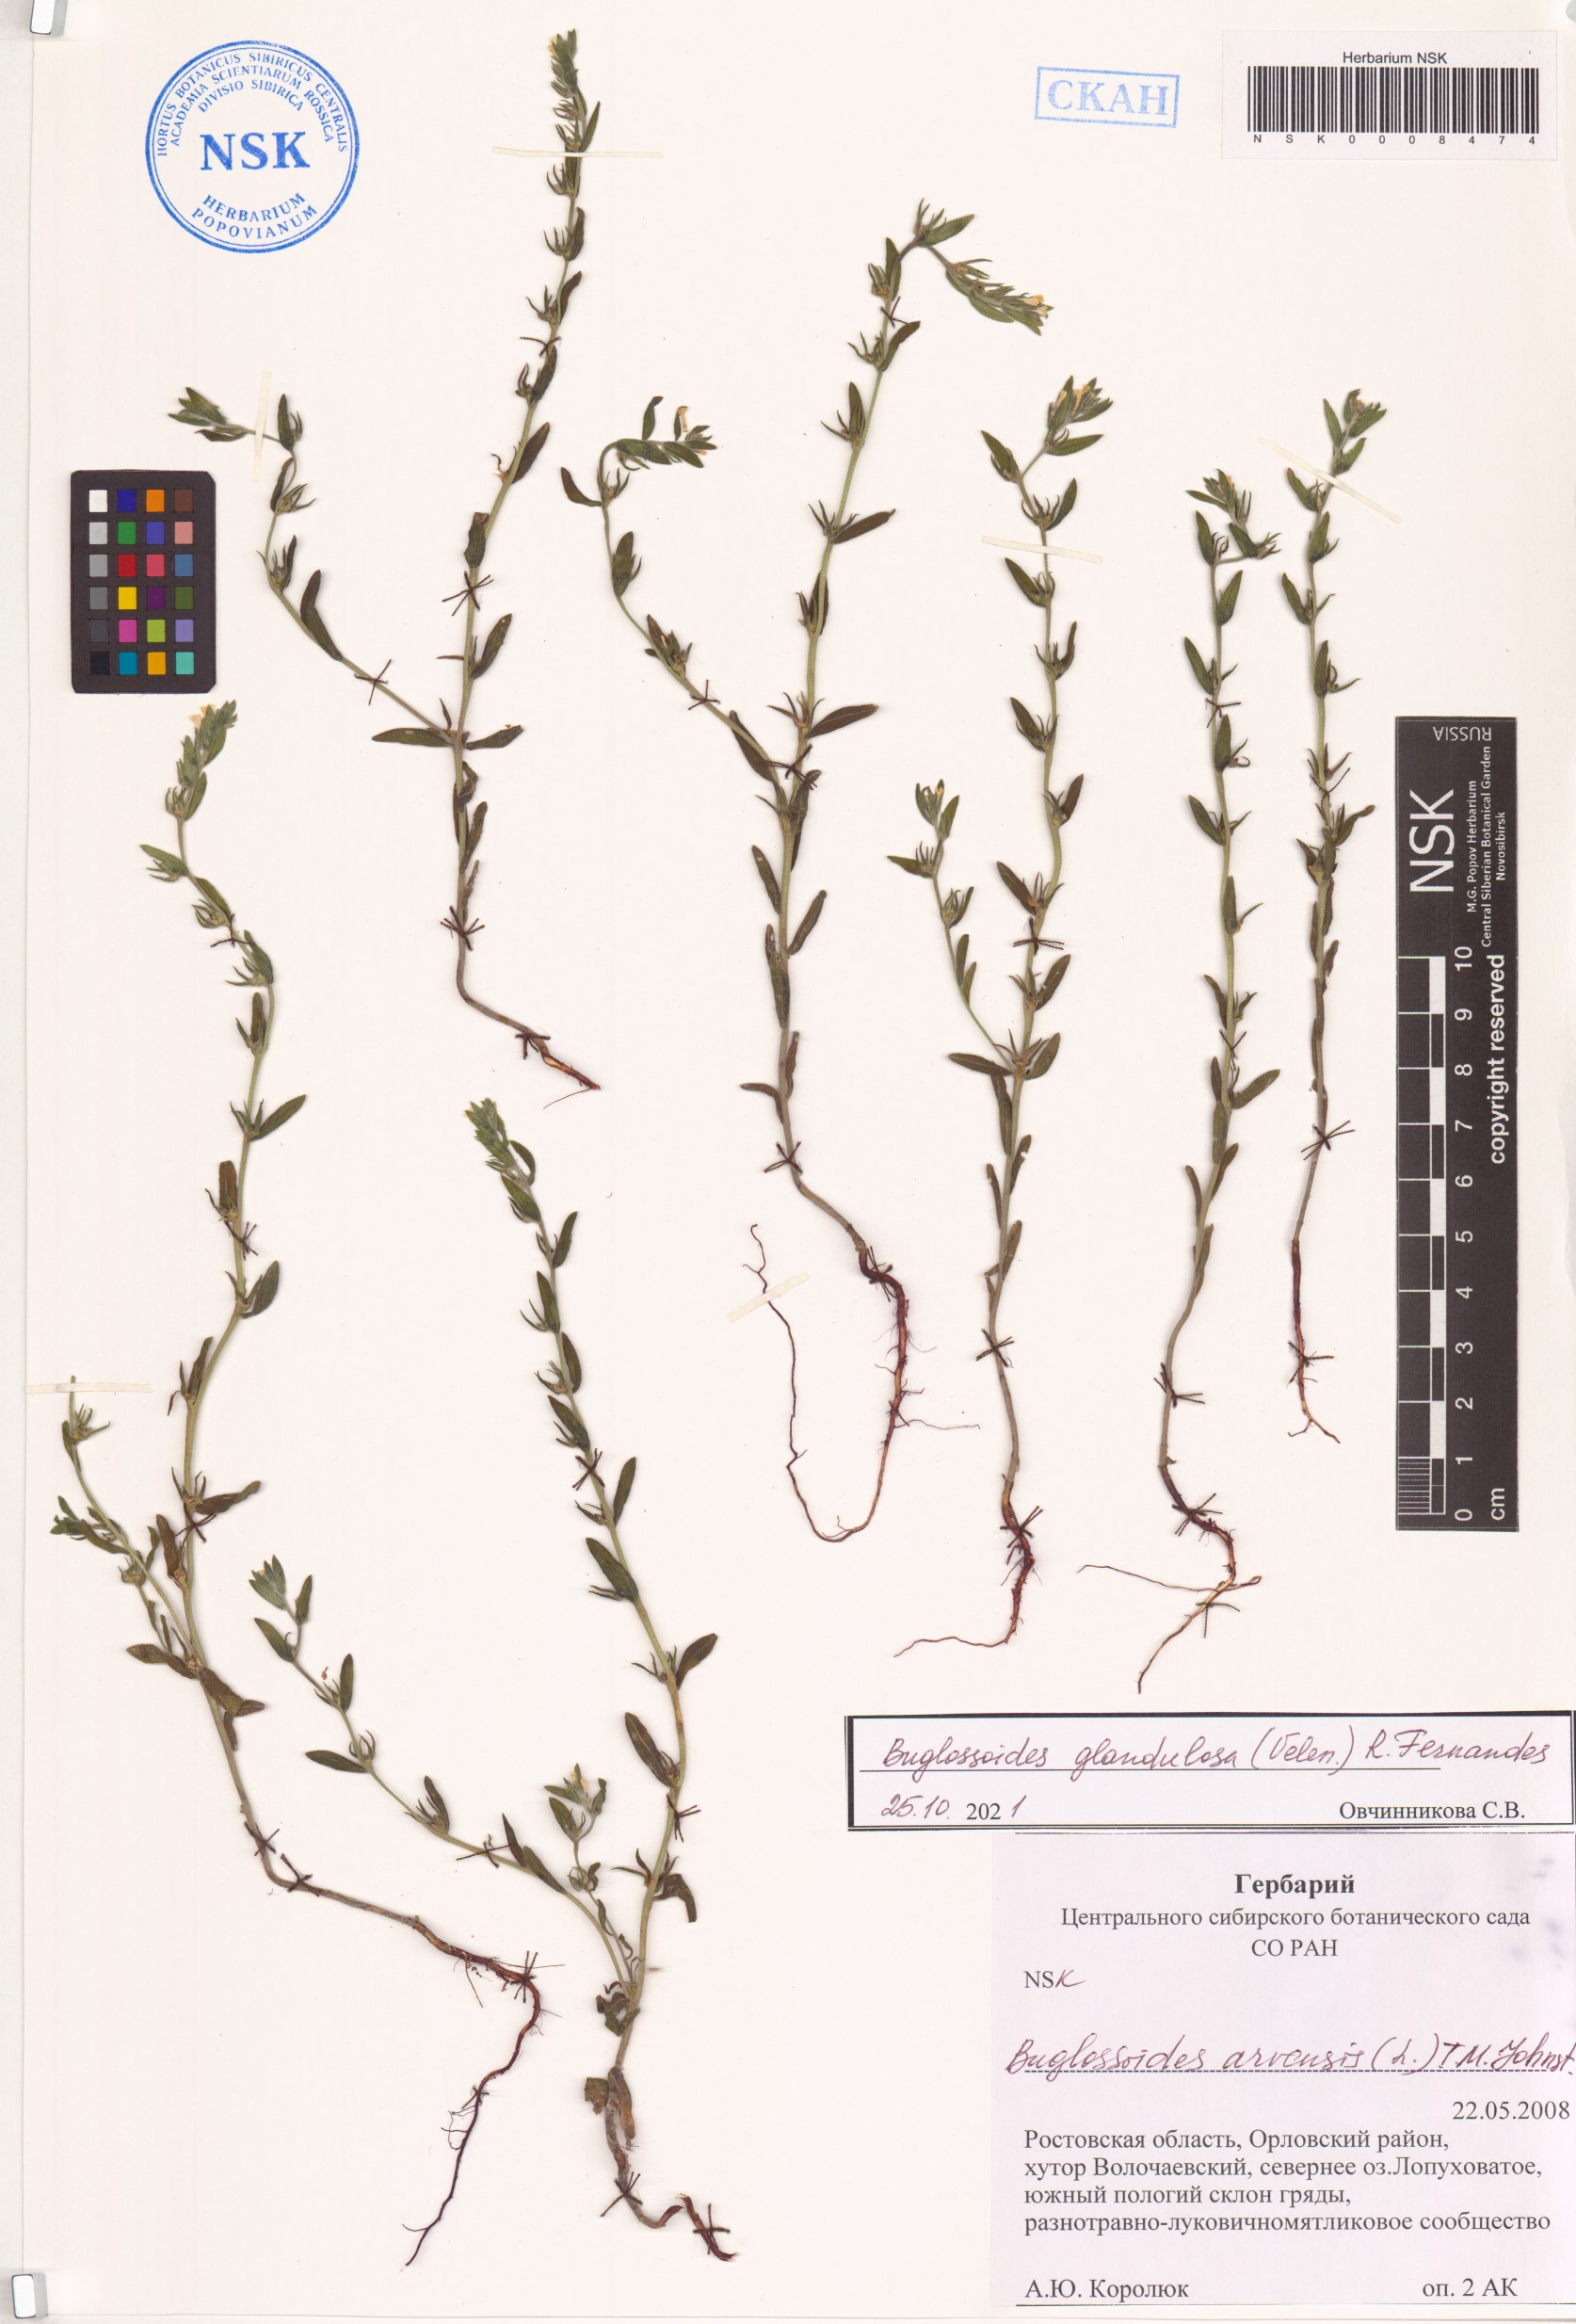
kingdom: Plantae
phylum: Tracheophyta
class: Magnoliopsida
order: Boraginales
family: Boraginaceae
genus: Buglossoides
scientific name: Buglossoides arvensis
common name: Corn gromwell
